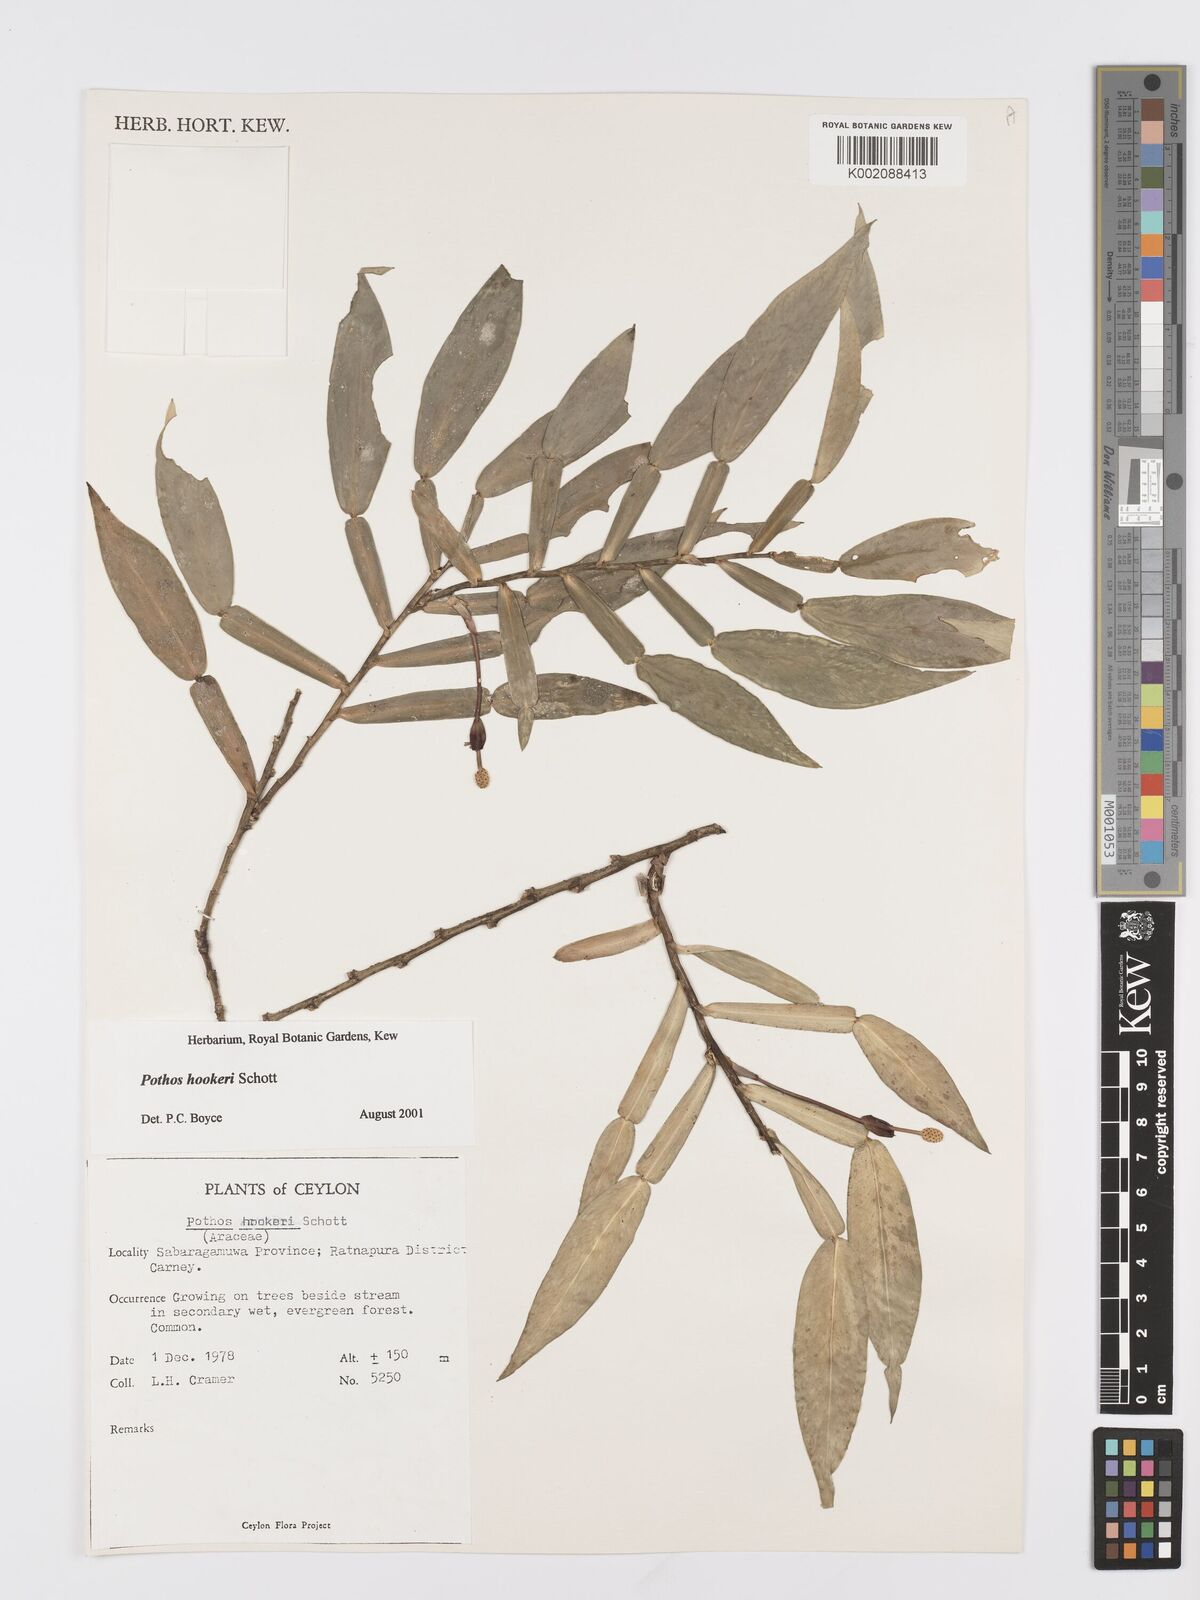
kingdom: Plantae
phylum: Tracheophyta
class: Liliopsida
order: Alismatales
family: Araceae
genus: Pothos
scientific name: Pothos hookeri
